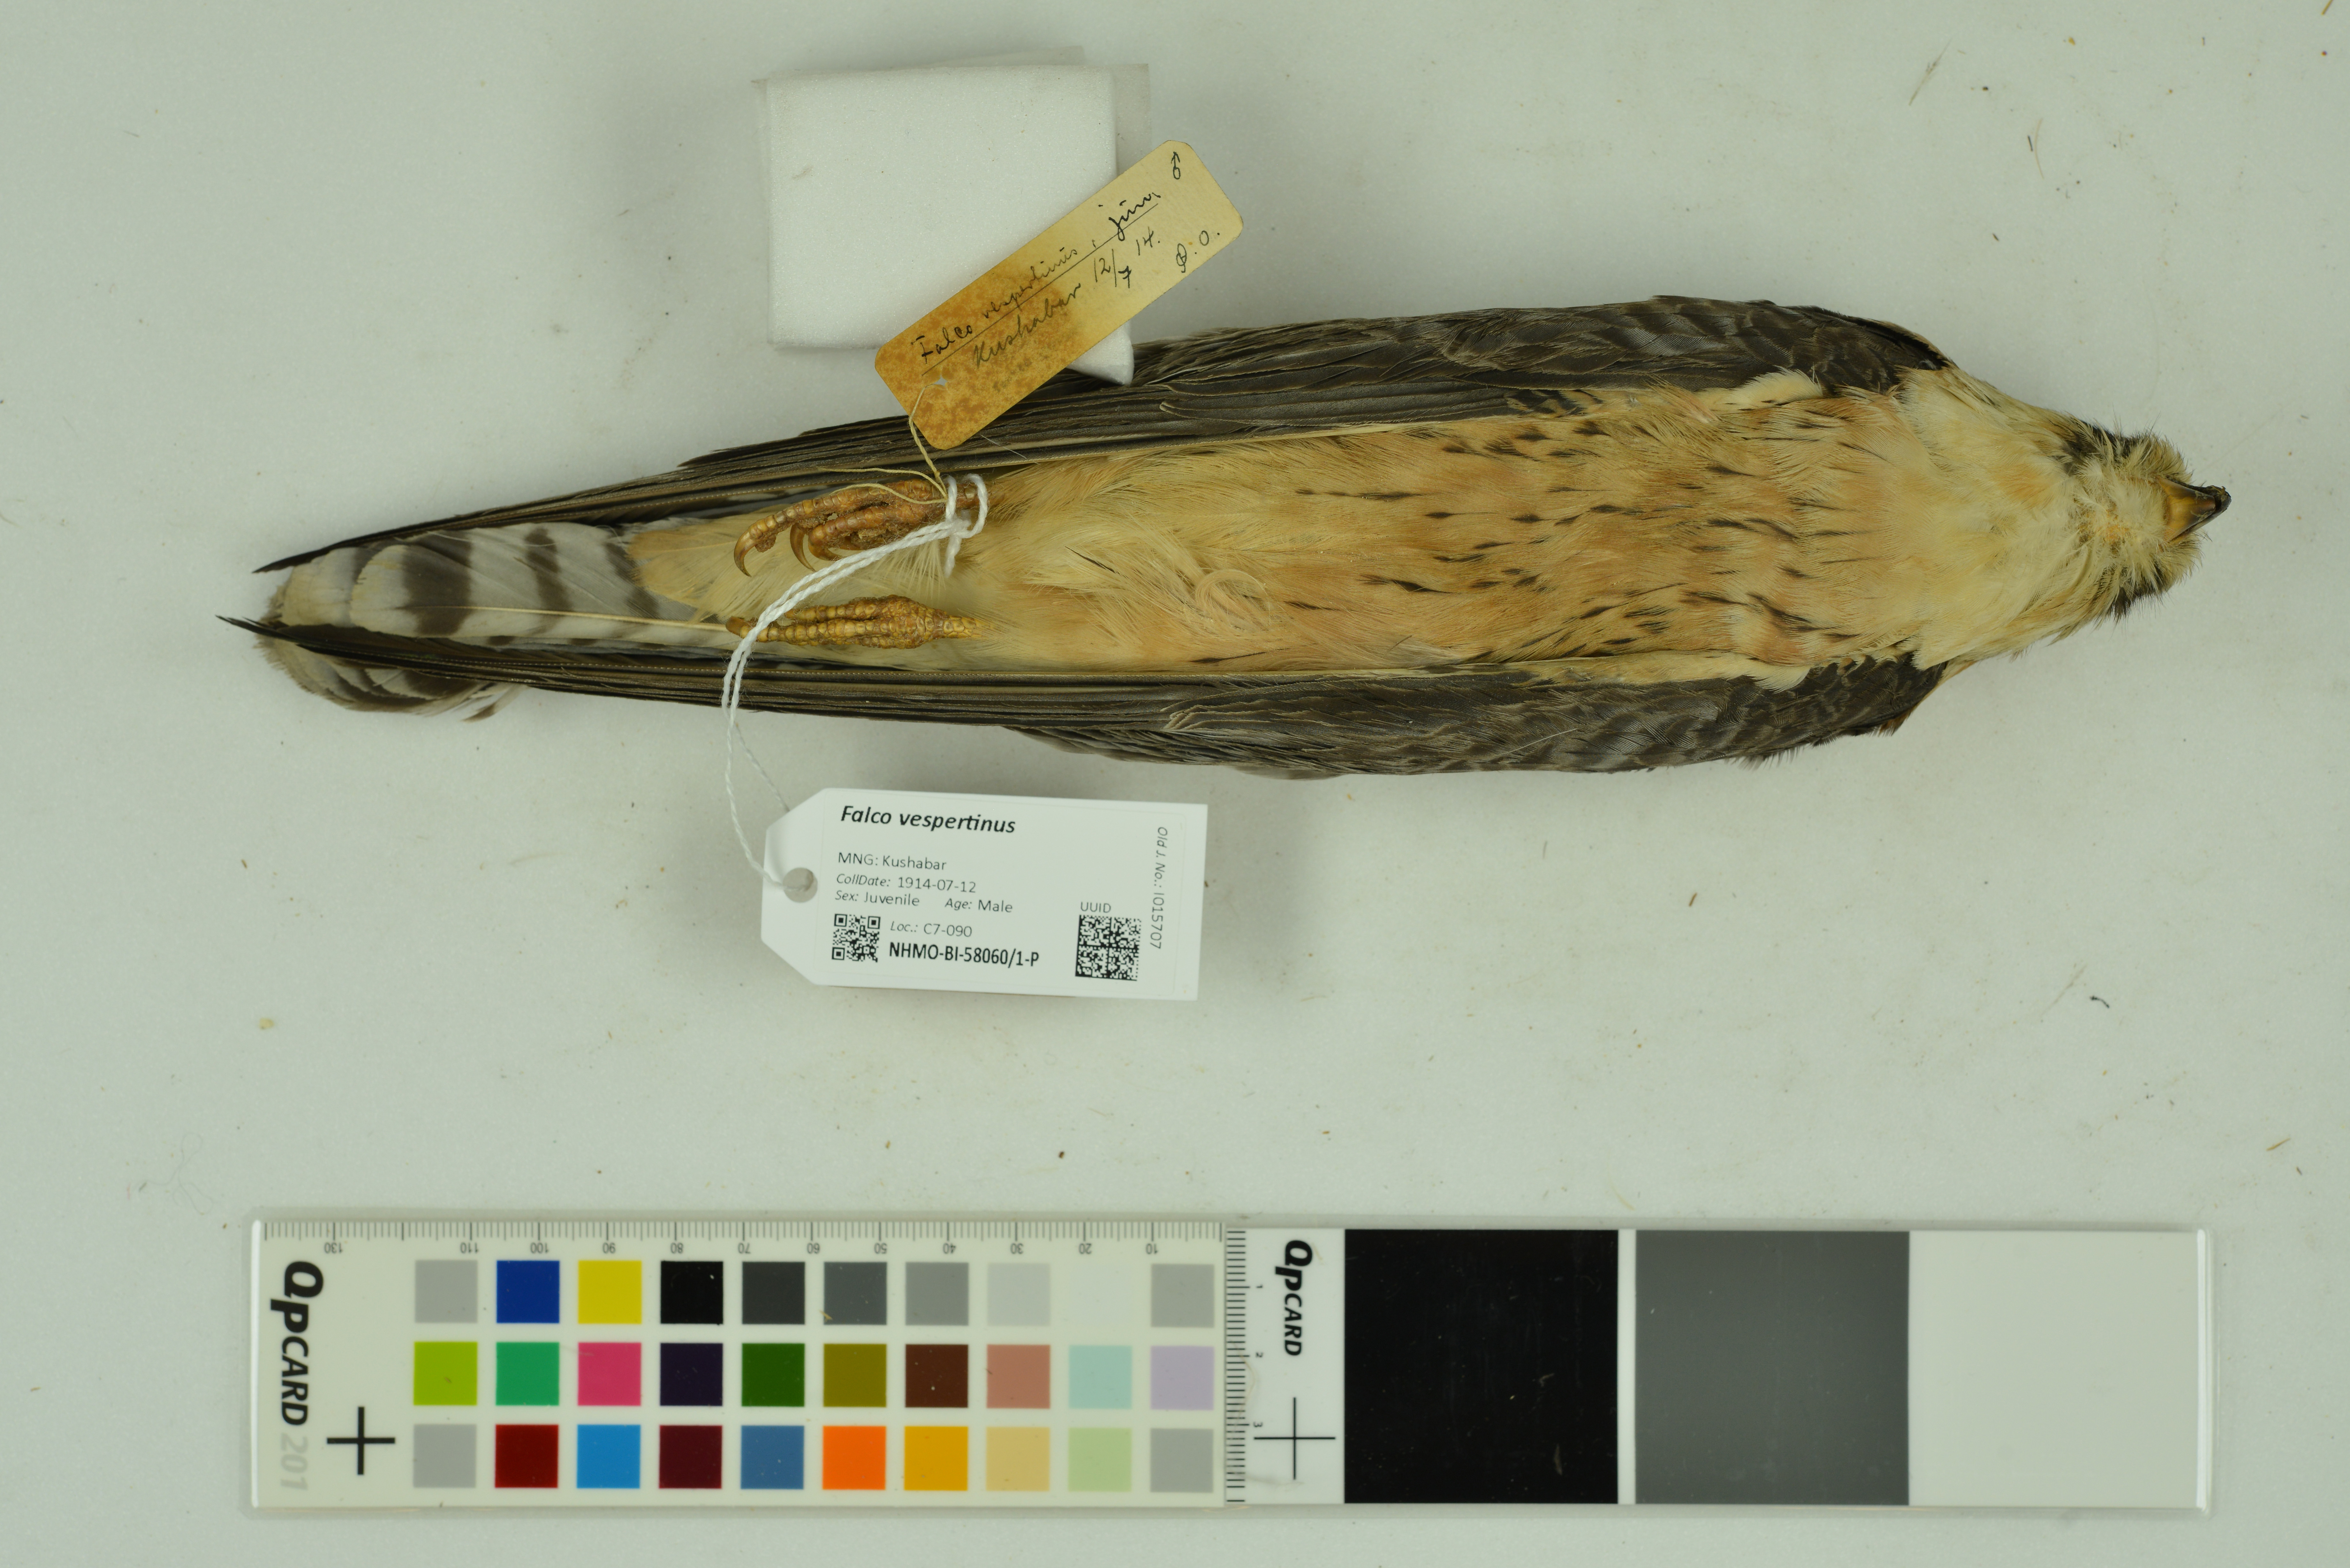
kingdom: Animalia
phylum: Chordata
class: Aves
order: Falconiformes
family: Falconidae
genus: Falco
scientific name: Falco vespertinus
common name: Red-footed falcon
